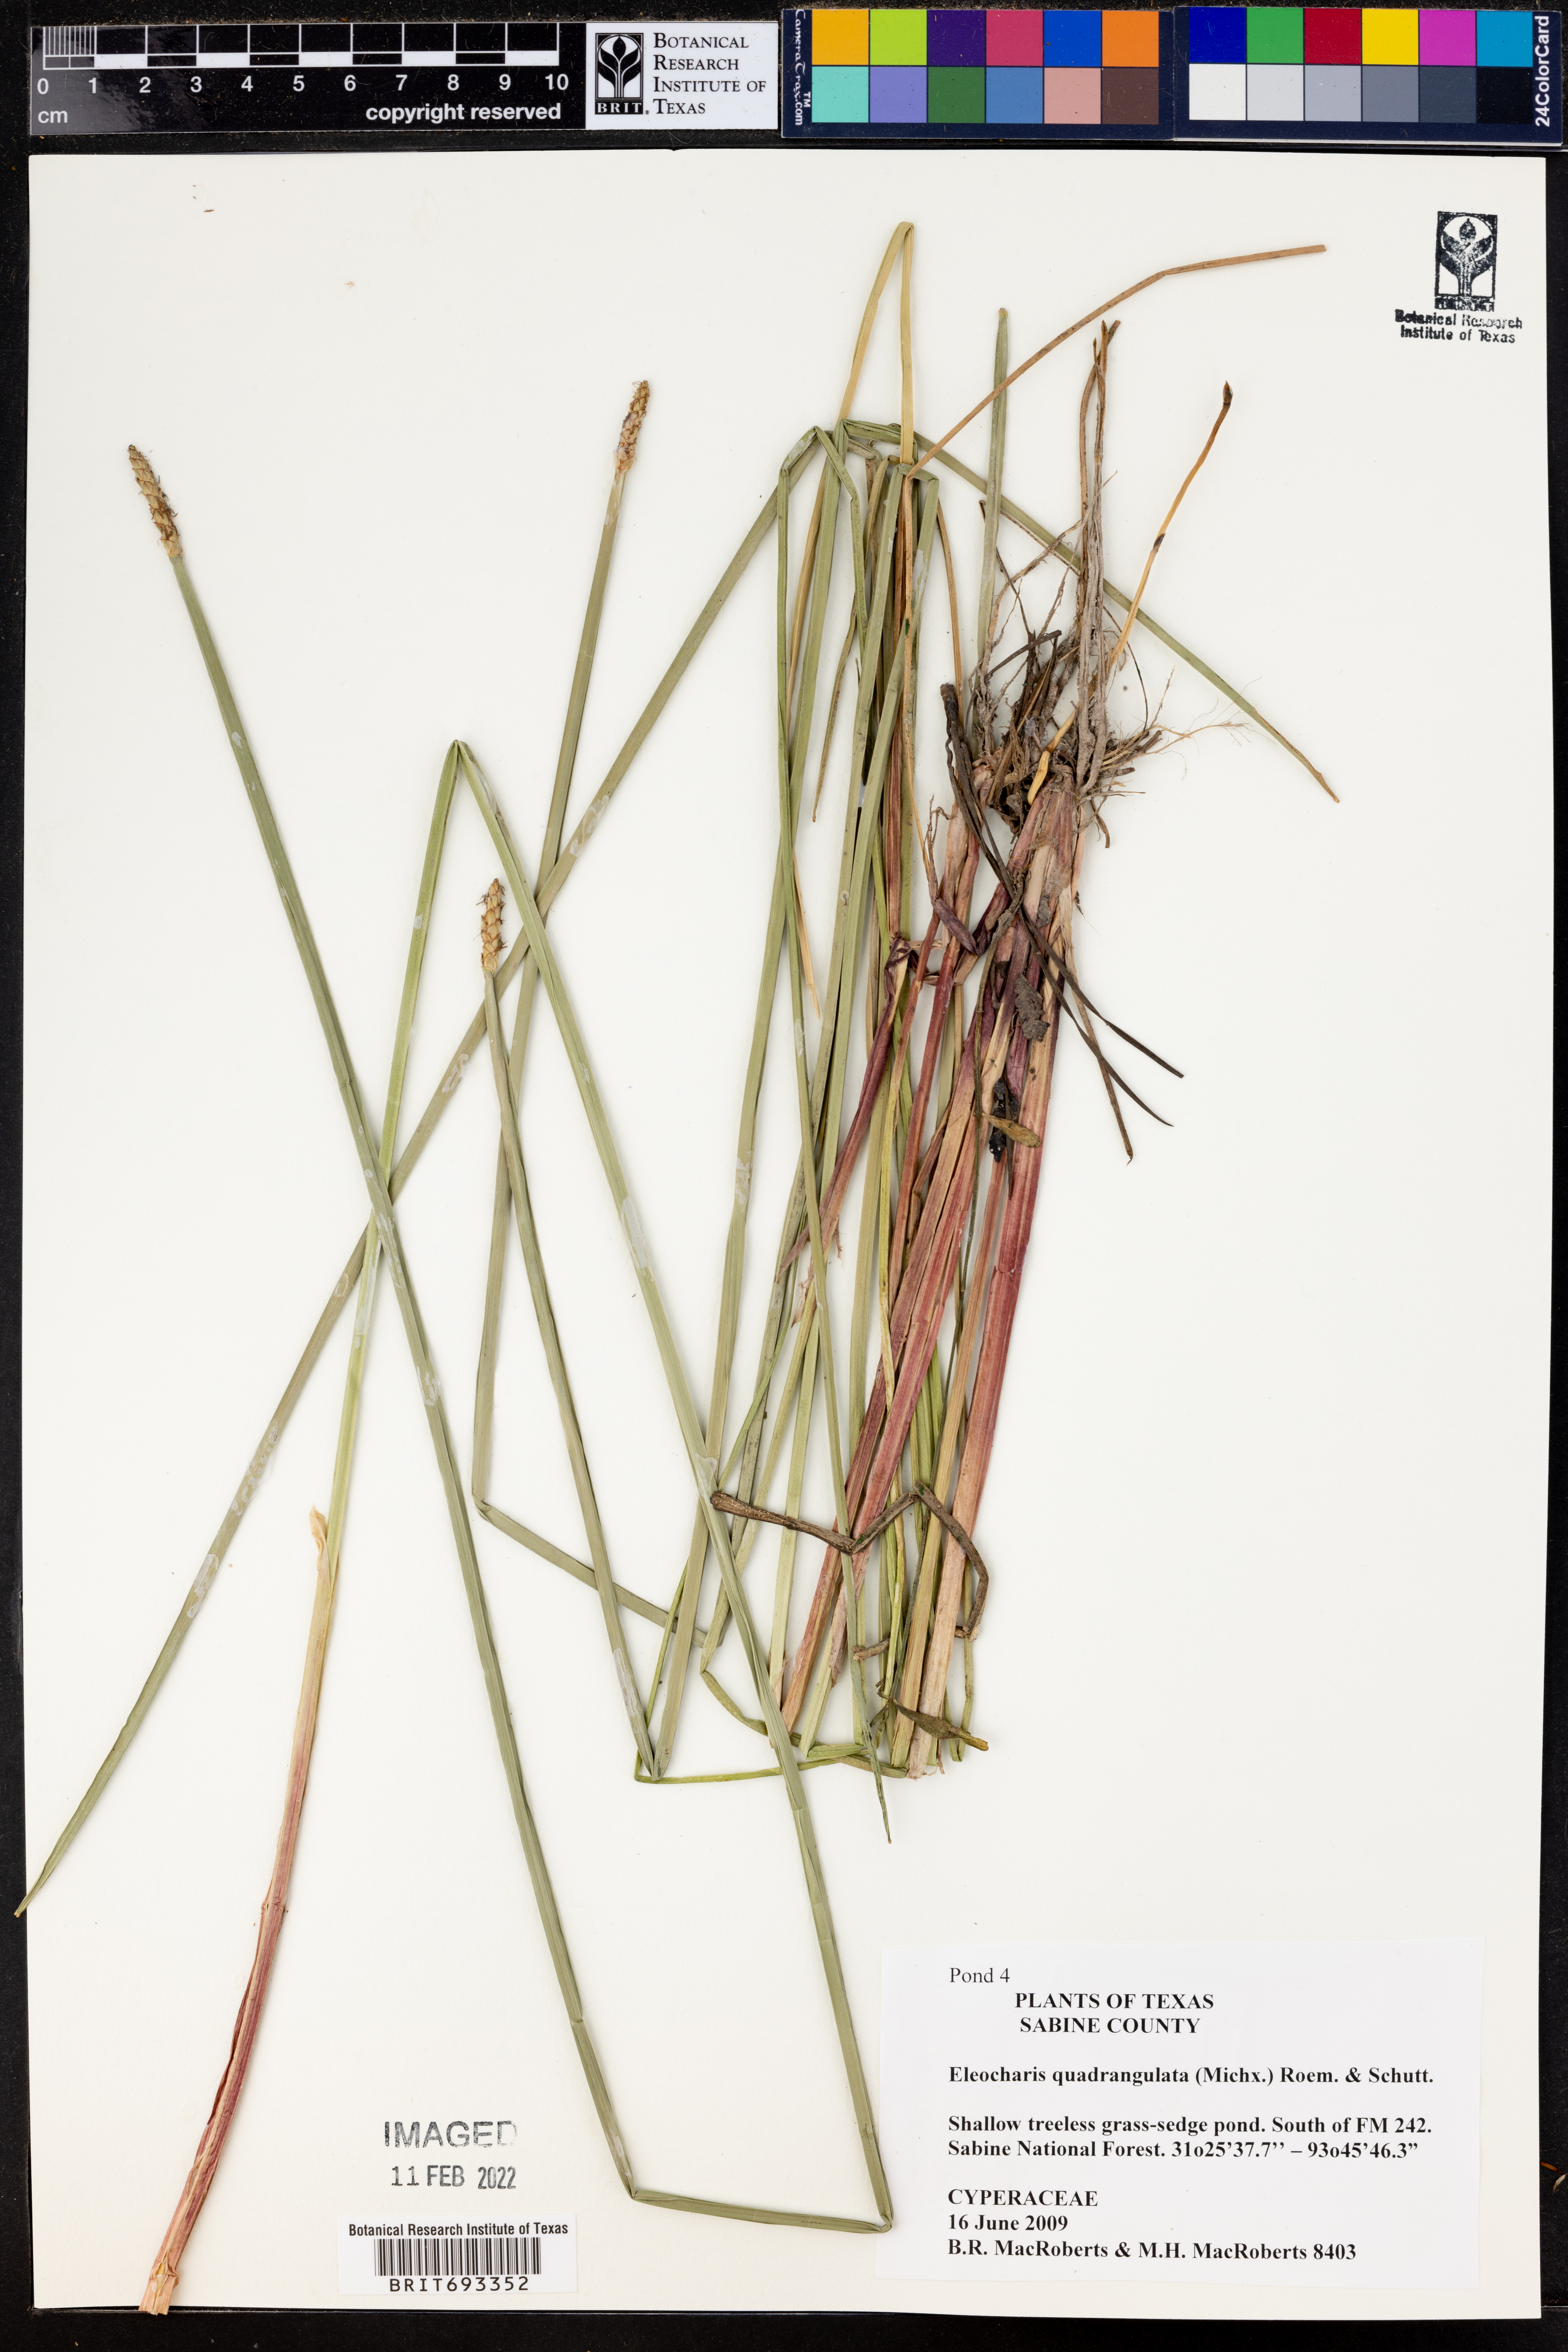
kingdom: Plantae
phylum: Tracheophyta
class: Liliopsida
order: Poales
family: Cyperaceae
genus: Eleocharis
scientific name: Eleocharis quadrangulata
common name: Square-stem spike-rush
